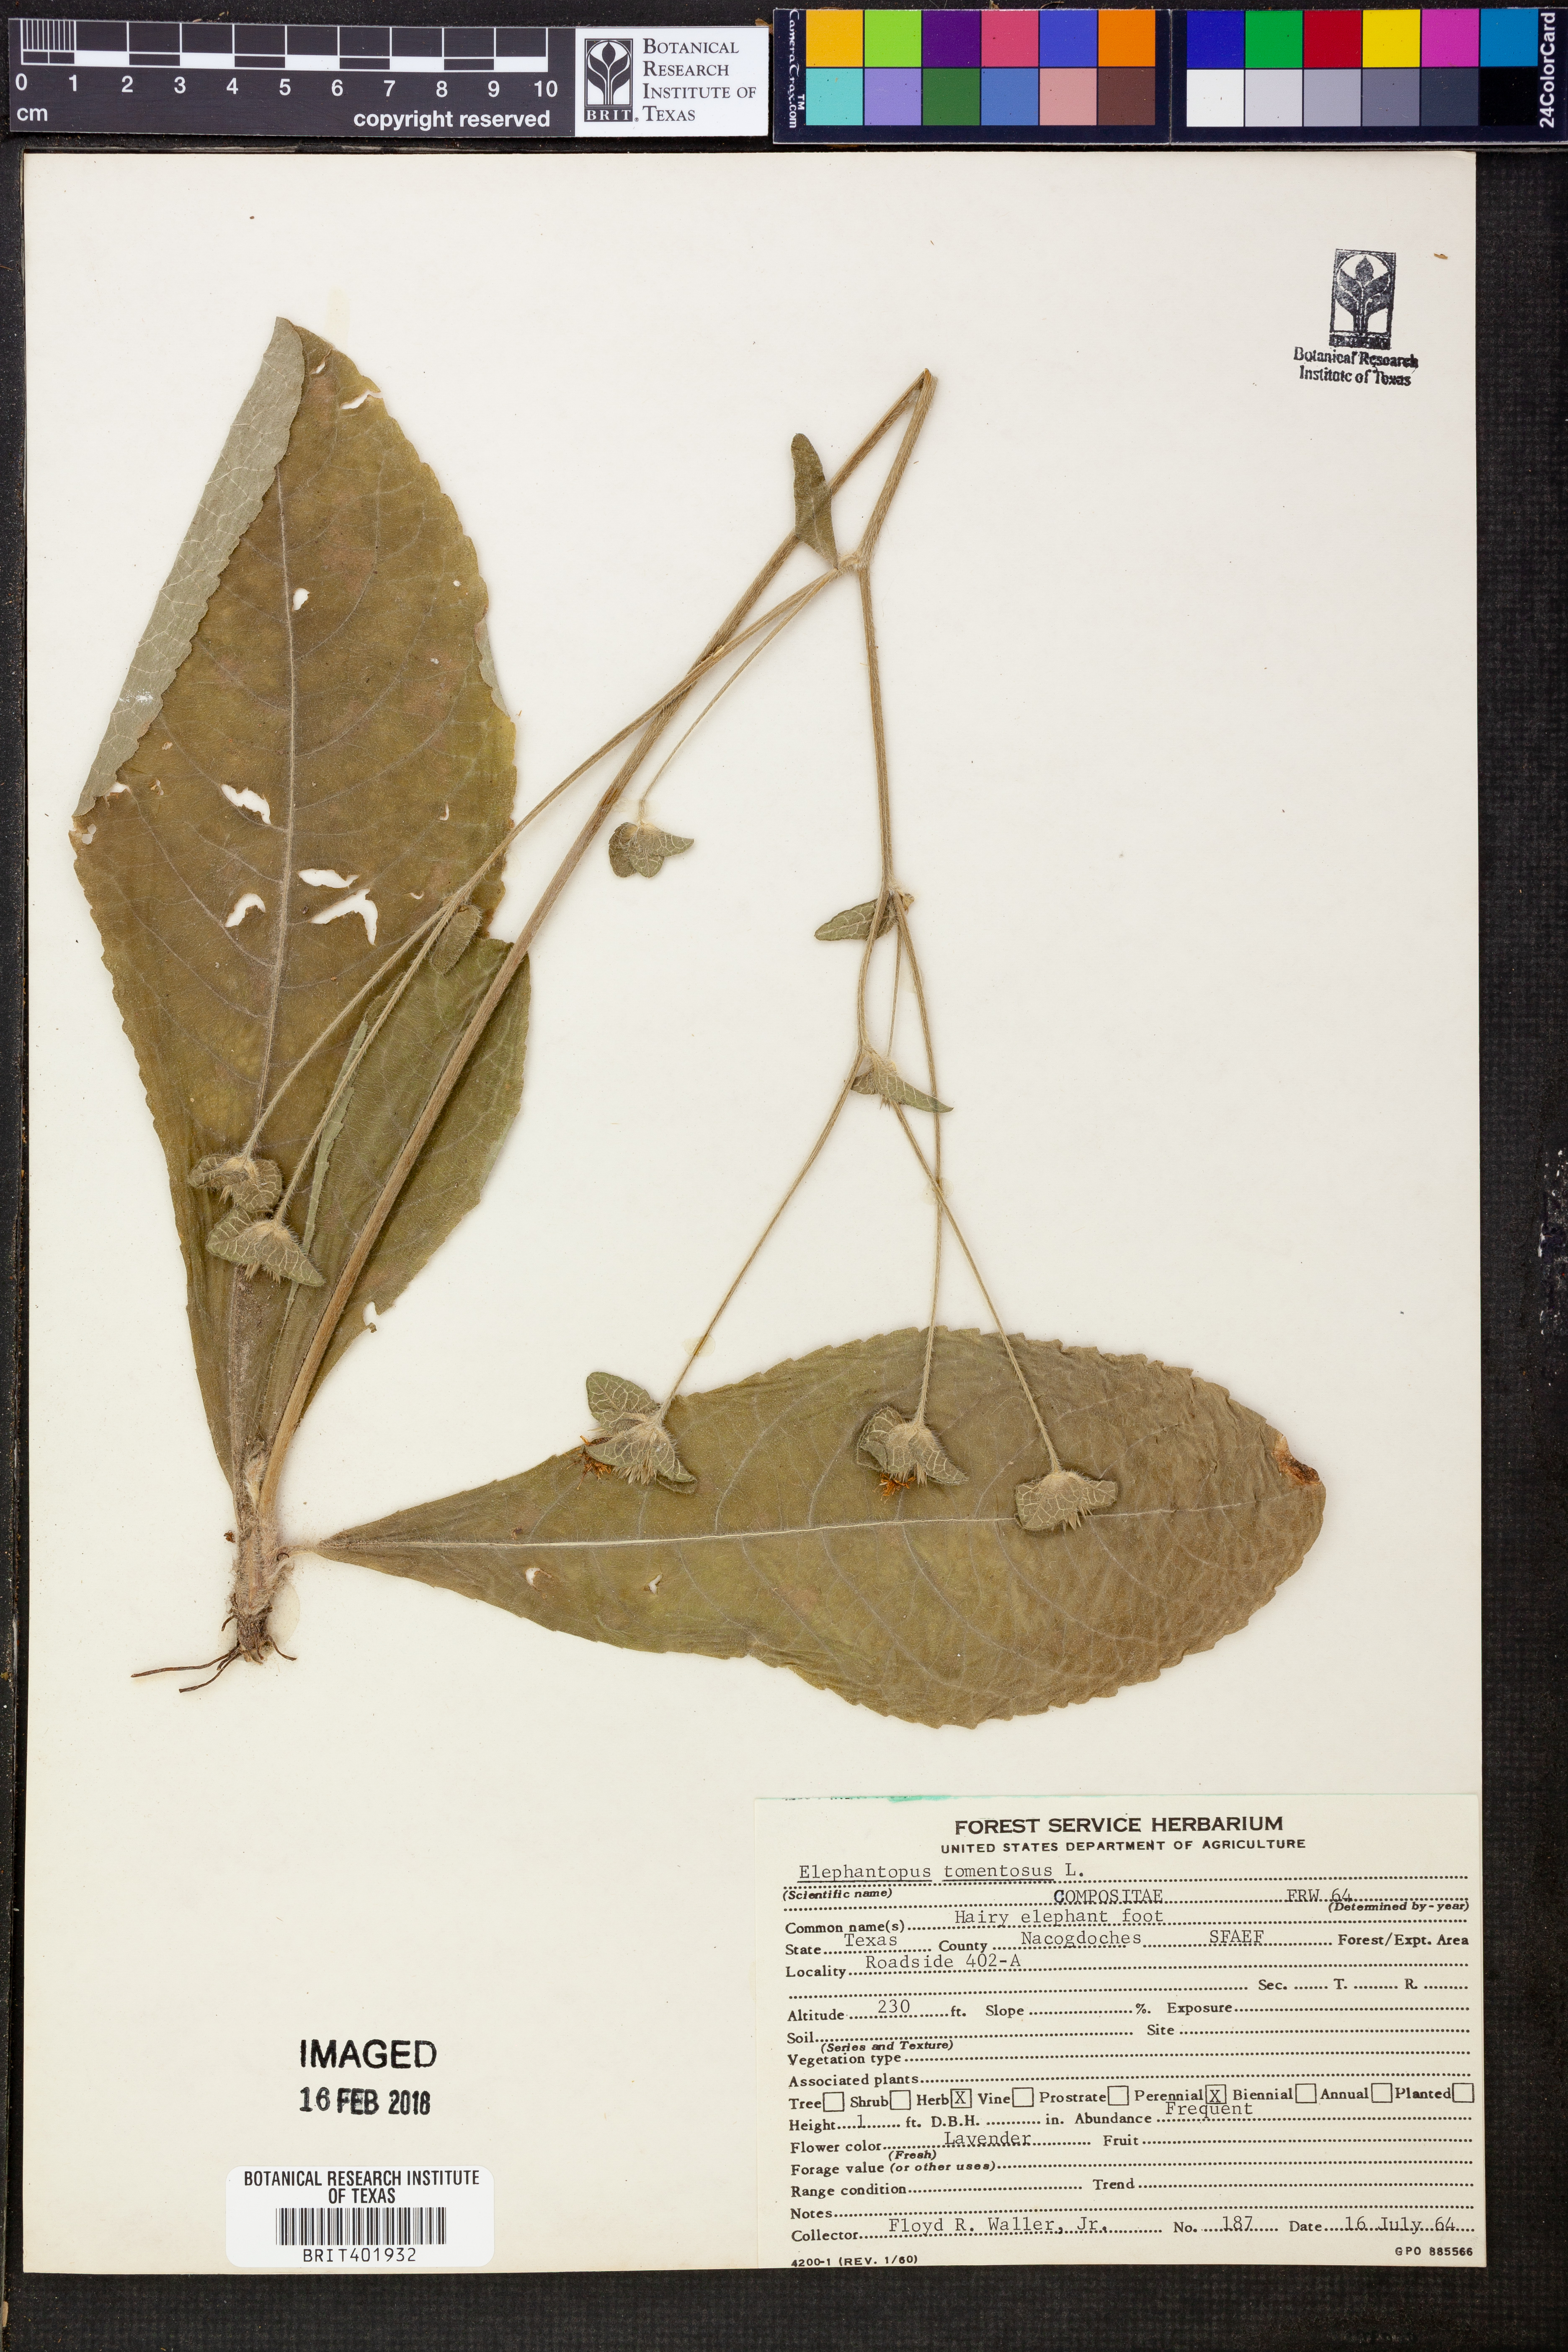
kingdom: Plantae
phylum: Tracheophyta
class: Magnoliopsida
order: Asterales
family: Asteraceae
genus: Elephantopus
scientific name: Elephantopus tomentosus
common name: Tobacco-weed
